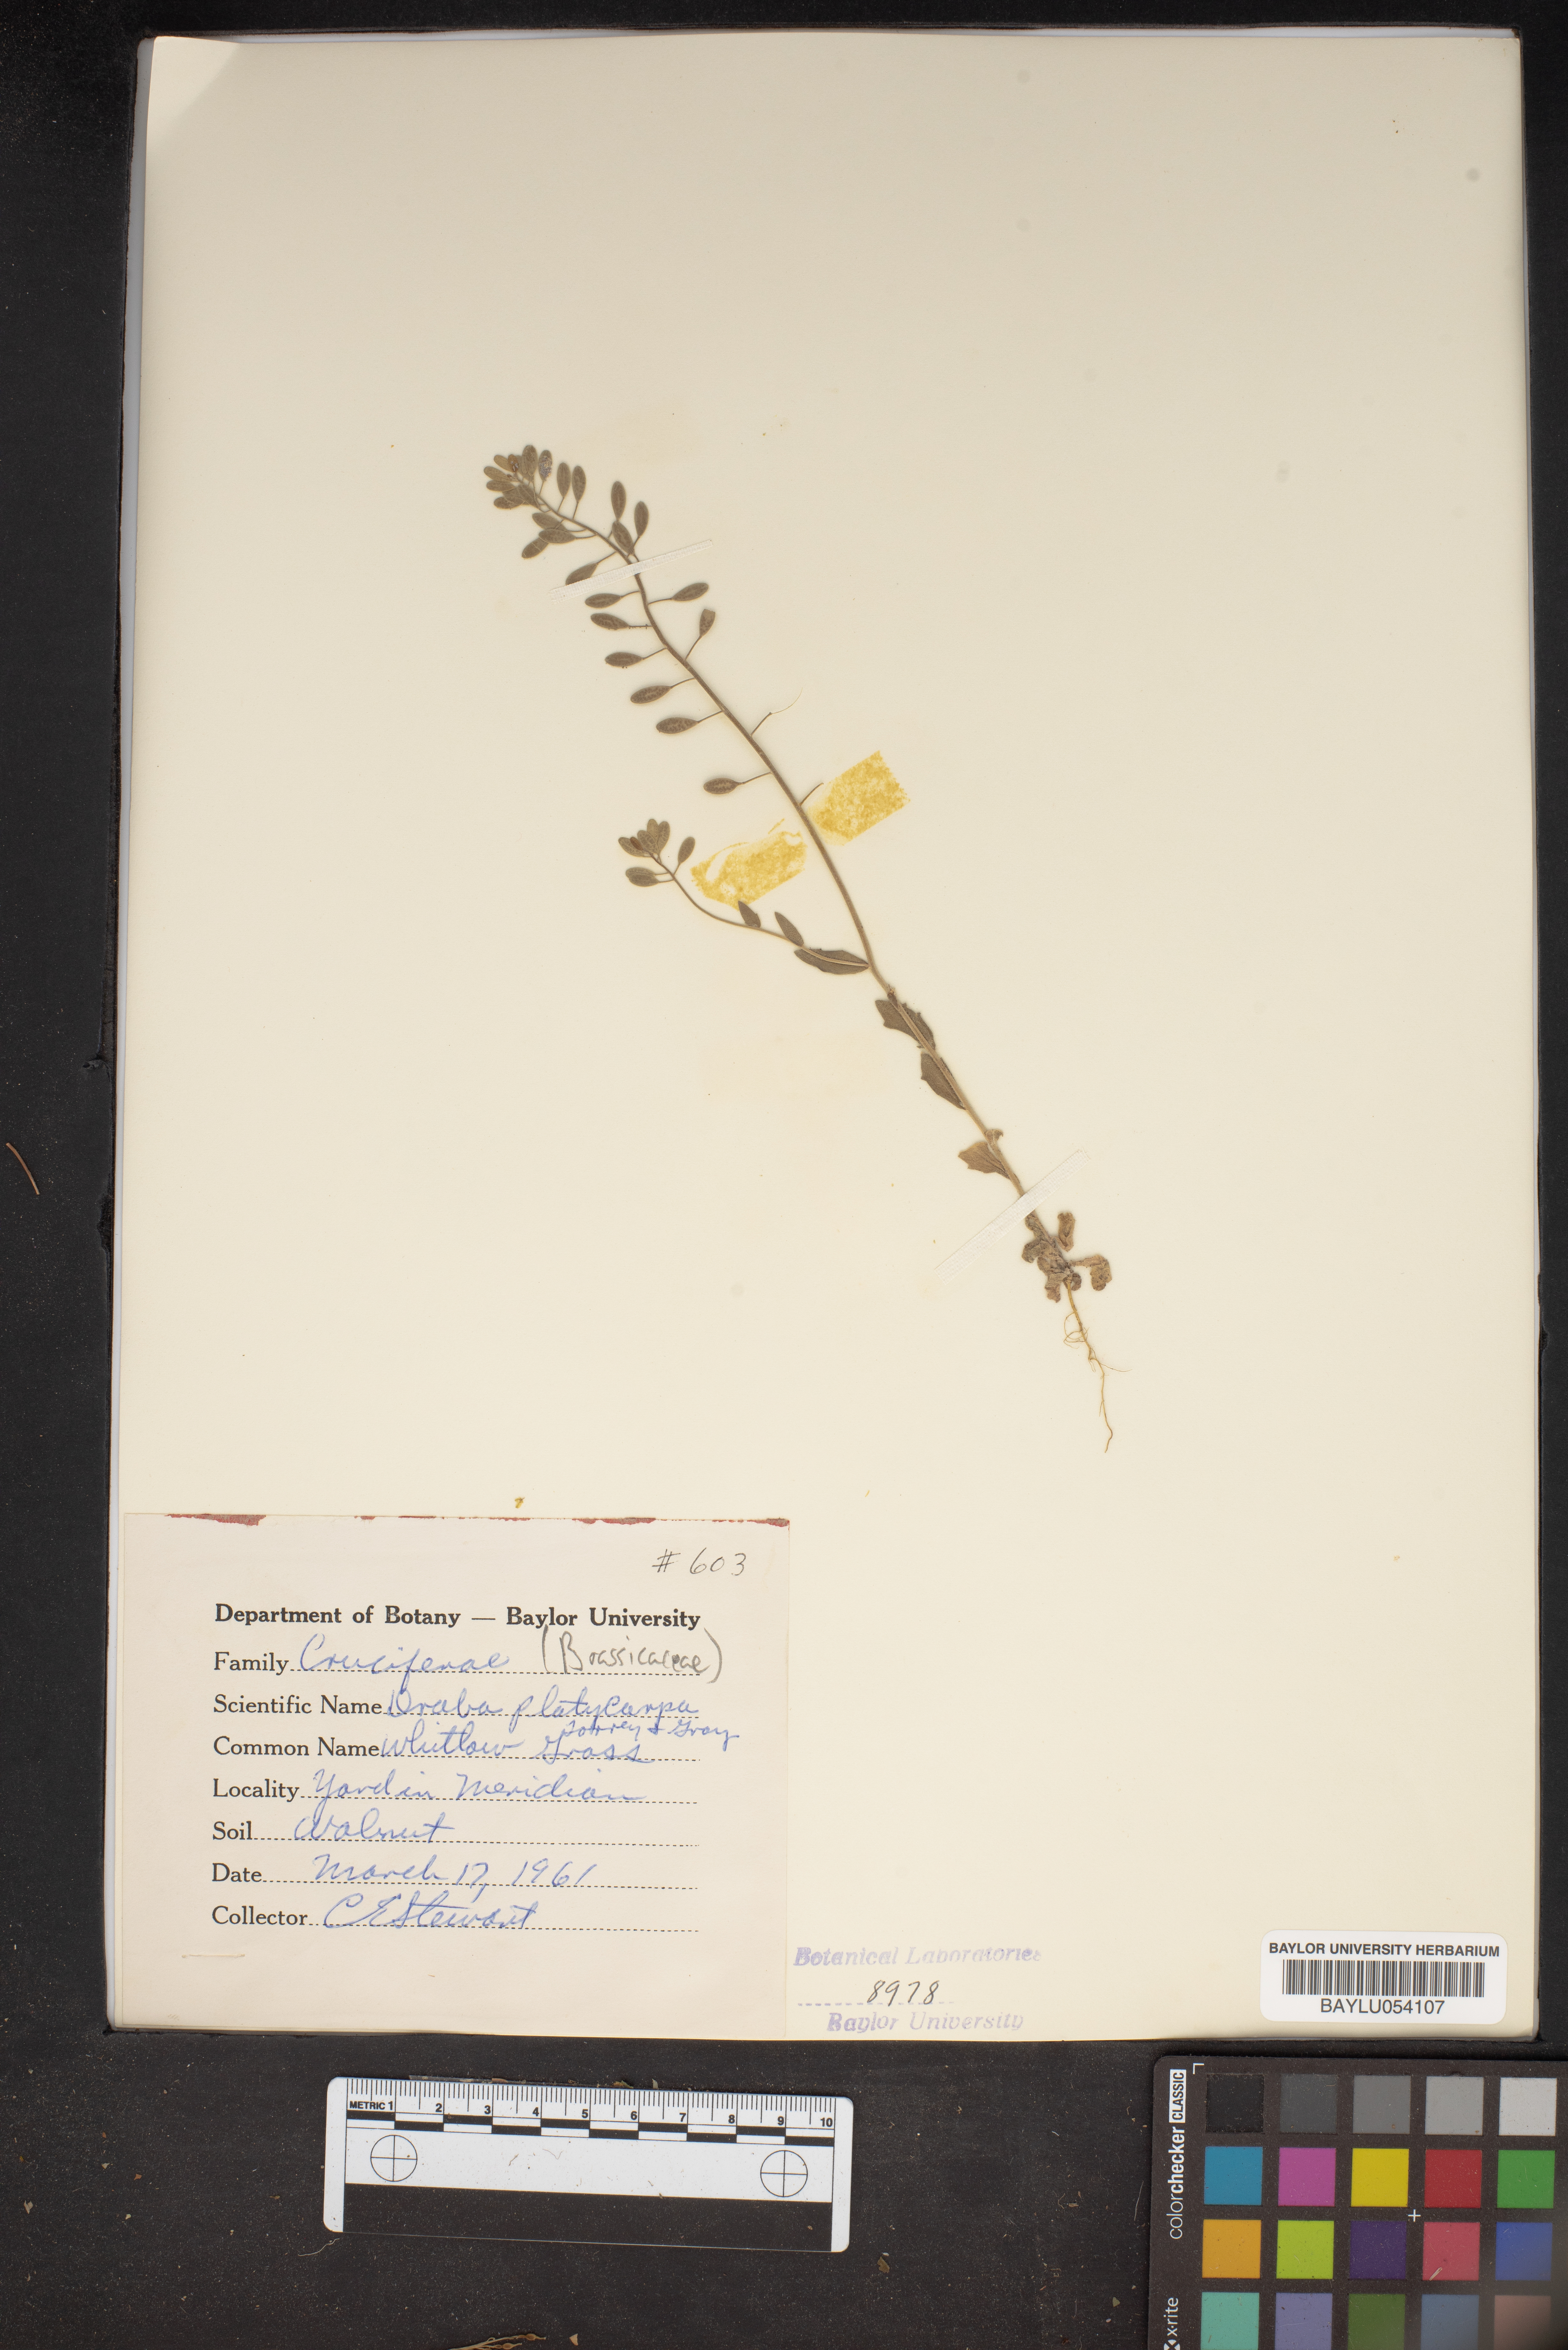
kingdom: Plantae
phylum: Tracheophyta
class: Magnoliopsida
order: Brassicales
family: Brassicaceae
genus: Tomostima
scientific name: Tomostima platycarpa
